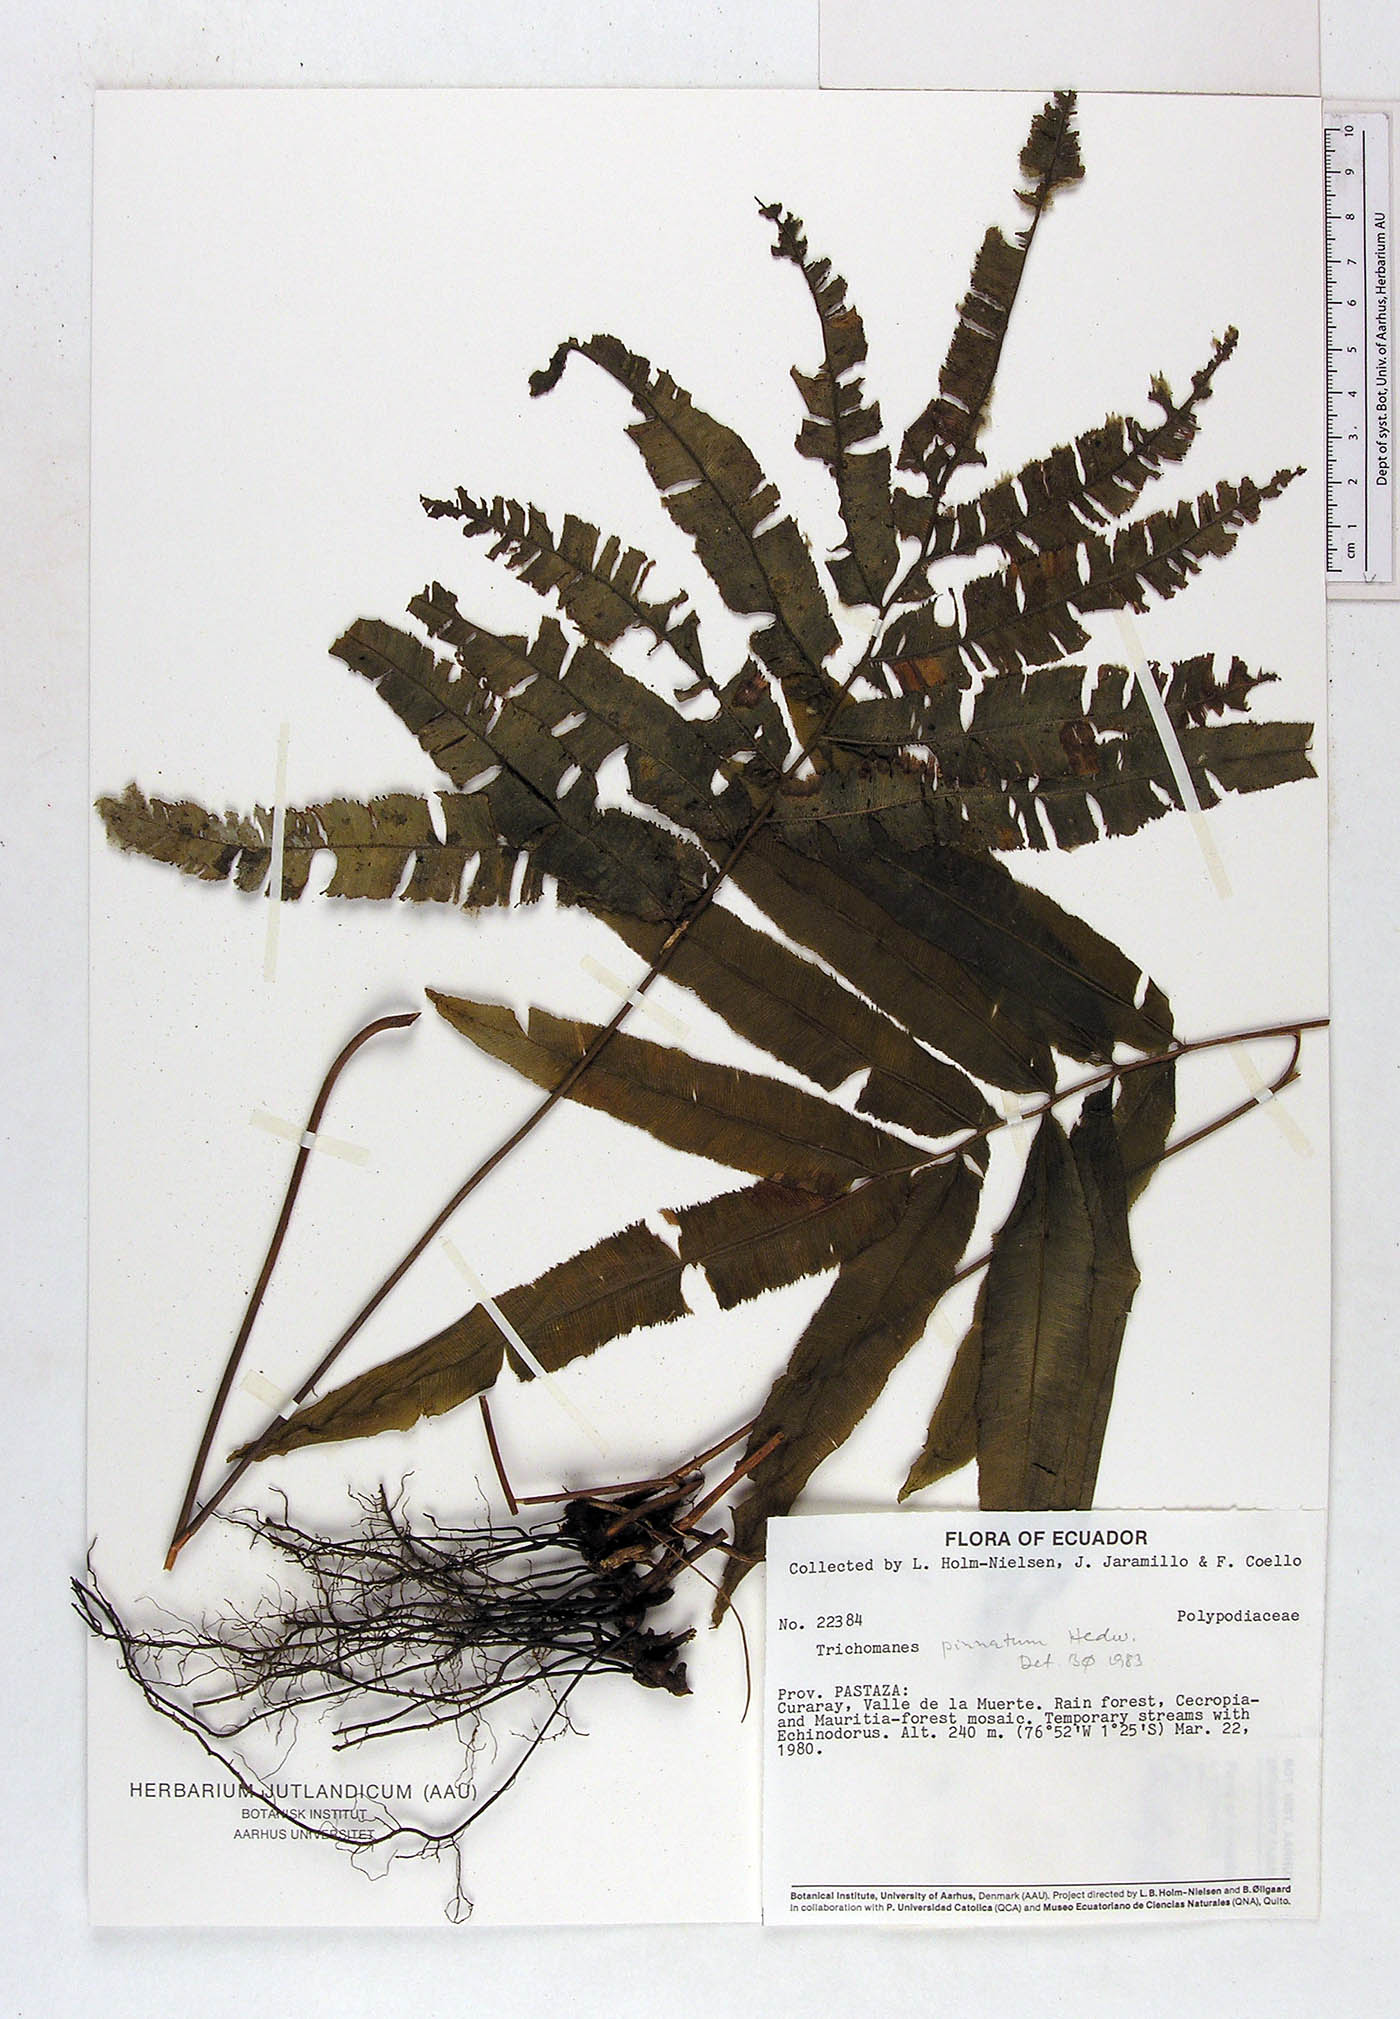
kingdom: Plantae
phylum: Tracheophyta
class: Polypodiopsida
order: Hymenophyllales
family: Hymenophyllaceae
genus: Trichomanes
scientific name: Trichomanes pinnatum
